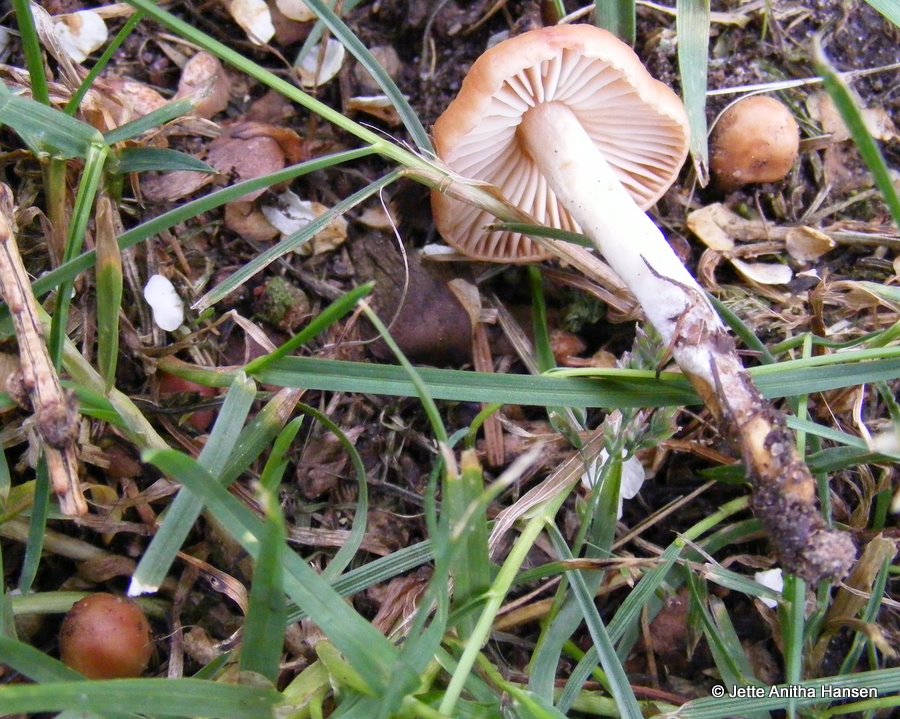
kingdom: Fungi
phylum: Basidiomycota
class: Agaricomycetes
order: Agaricales
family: Marasmiaceae
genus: Marasmius
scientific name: Marasmius oreades
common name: elledans-bruskhat
